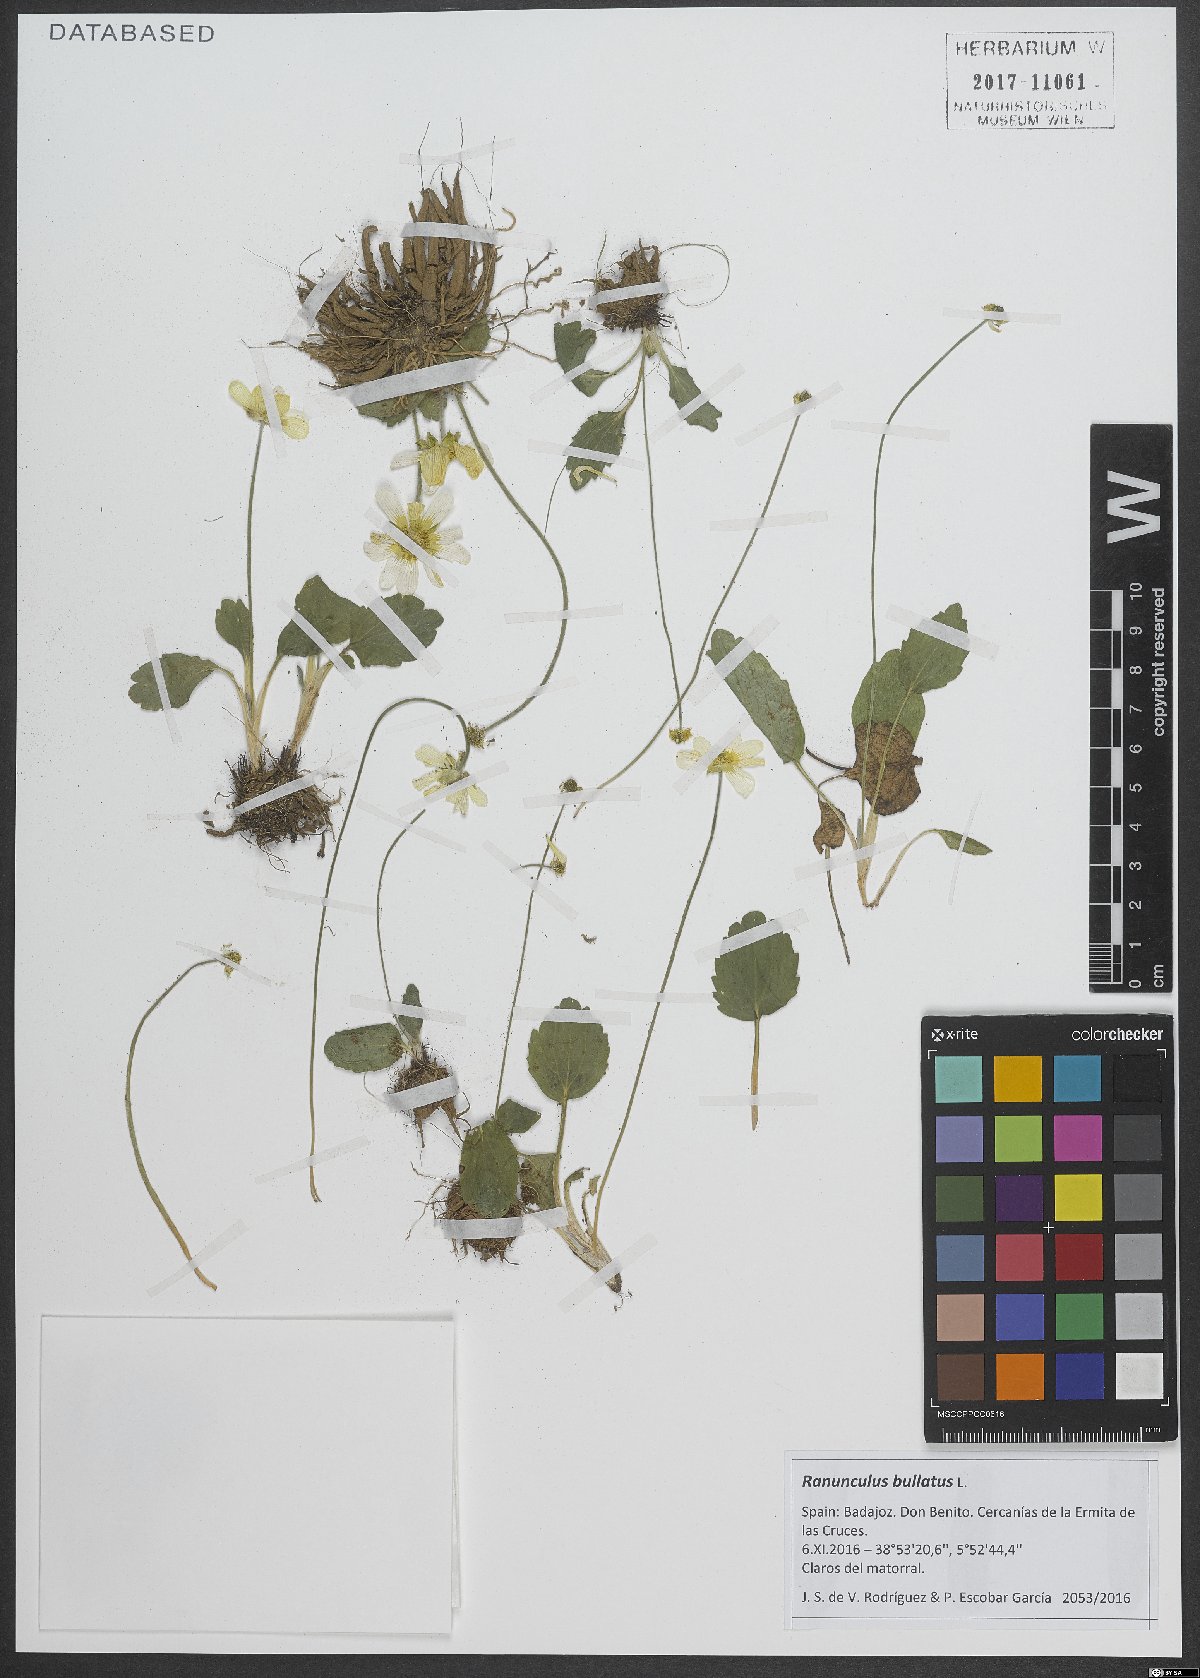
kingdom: Plantae
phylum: Tracheophyta
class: Magnoliopsida
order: Ranunculales
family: Ranunculaceae
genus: Ranunculus
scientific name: Ranunculus bullatus
